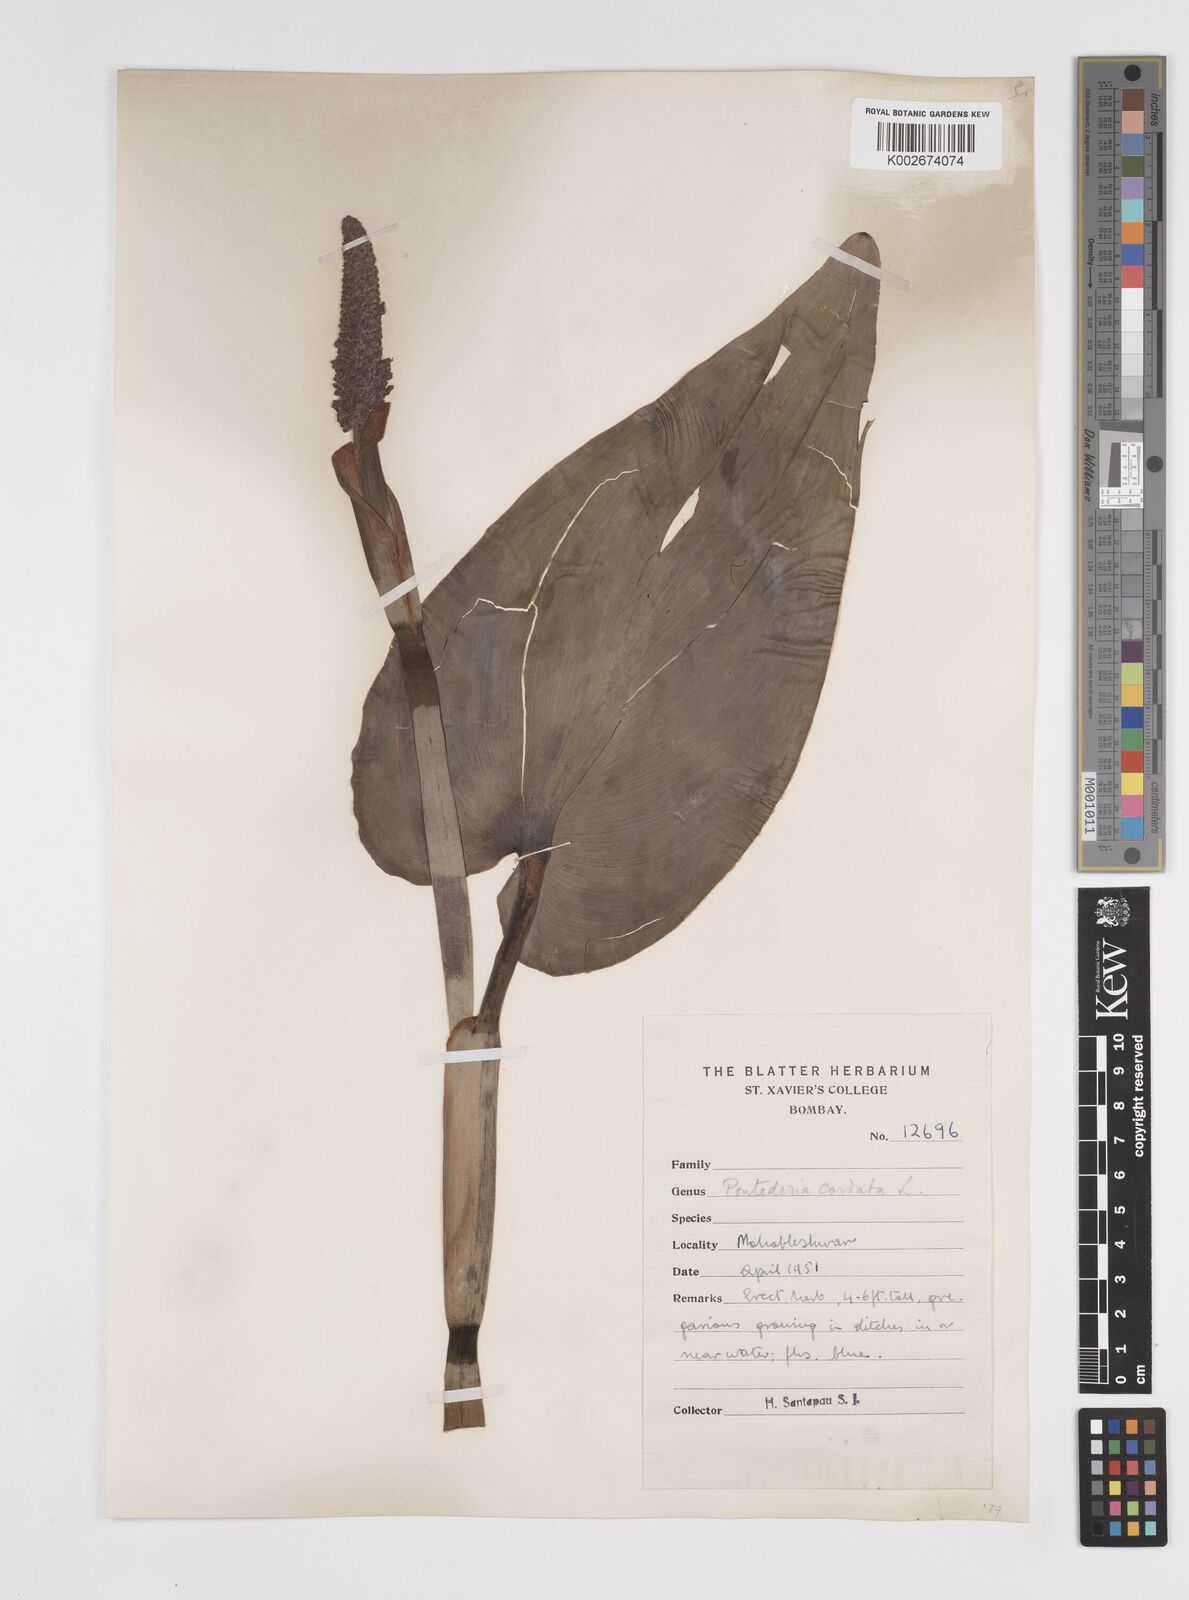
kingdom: Plantae
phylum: Tracheophyta
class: Liliopsida
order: Commelinales
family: Pontederiaceae
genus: Pontederia
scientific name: Pontederia cordata
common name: Pickerelweed
